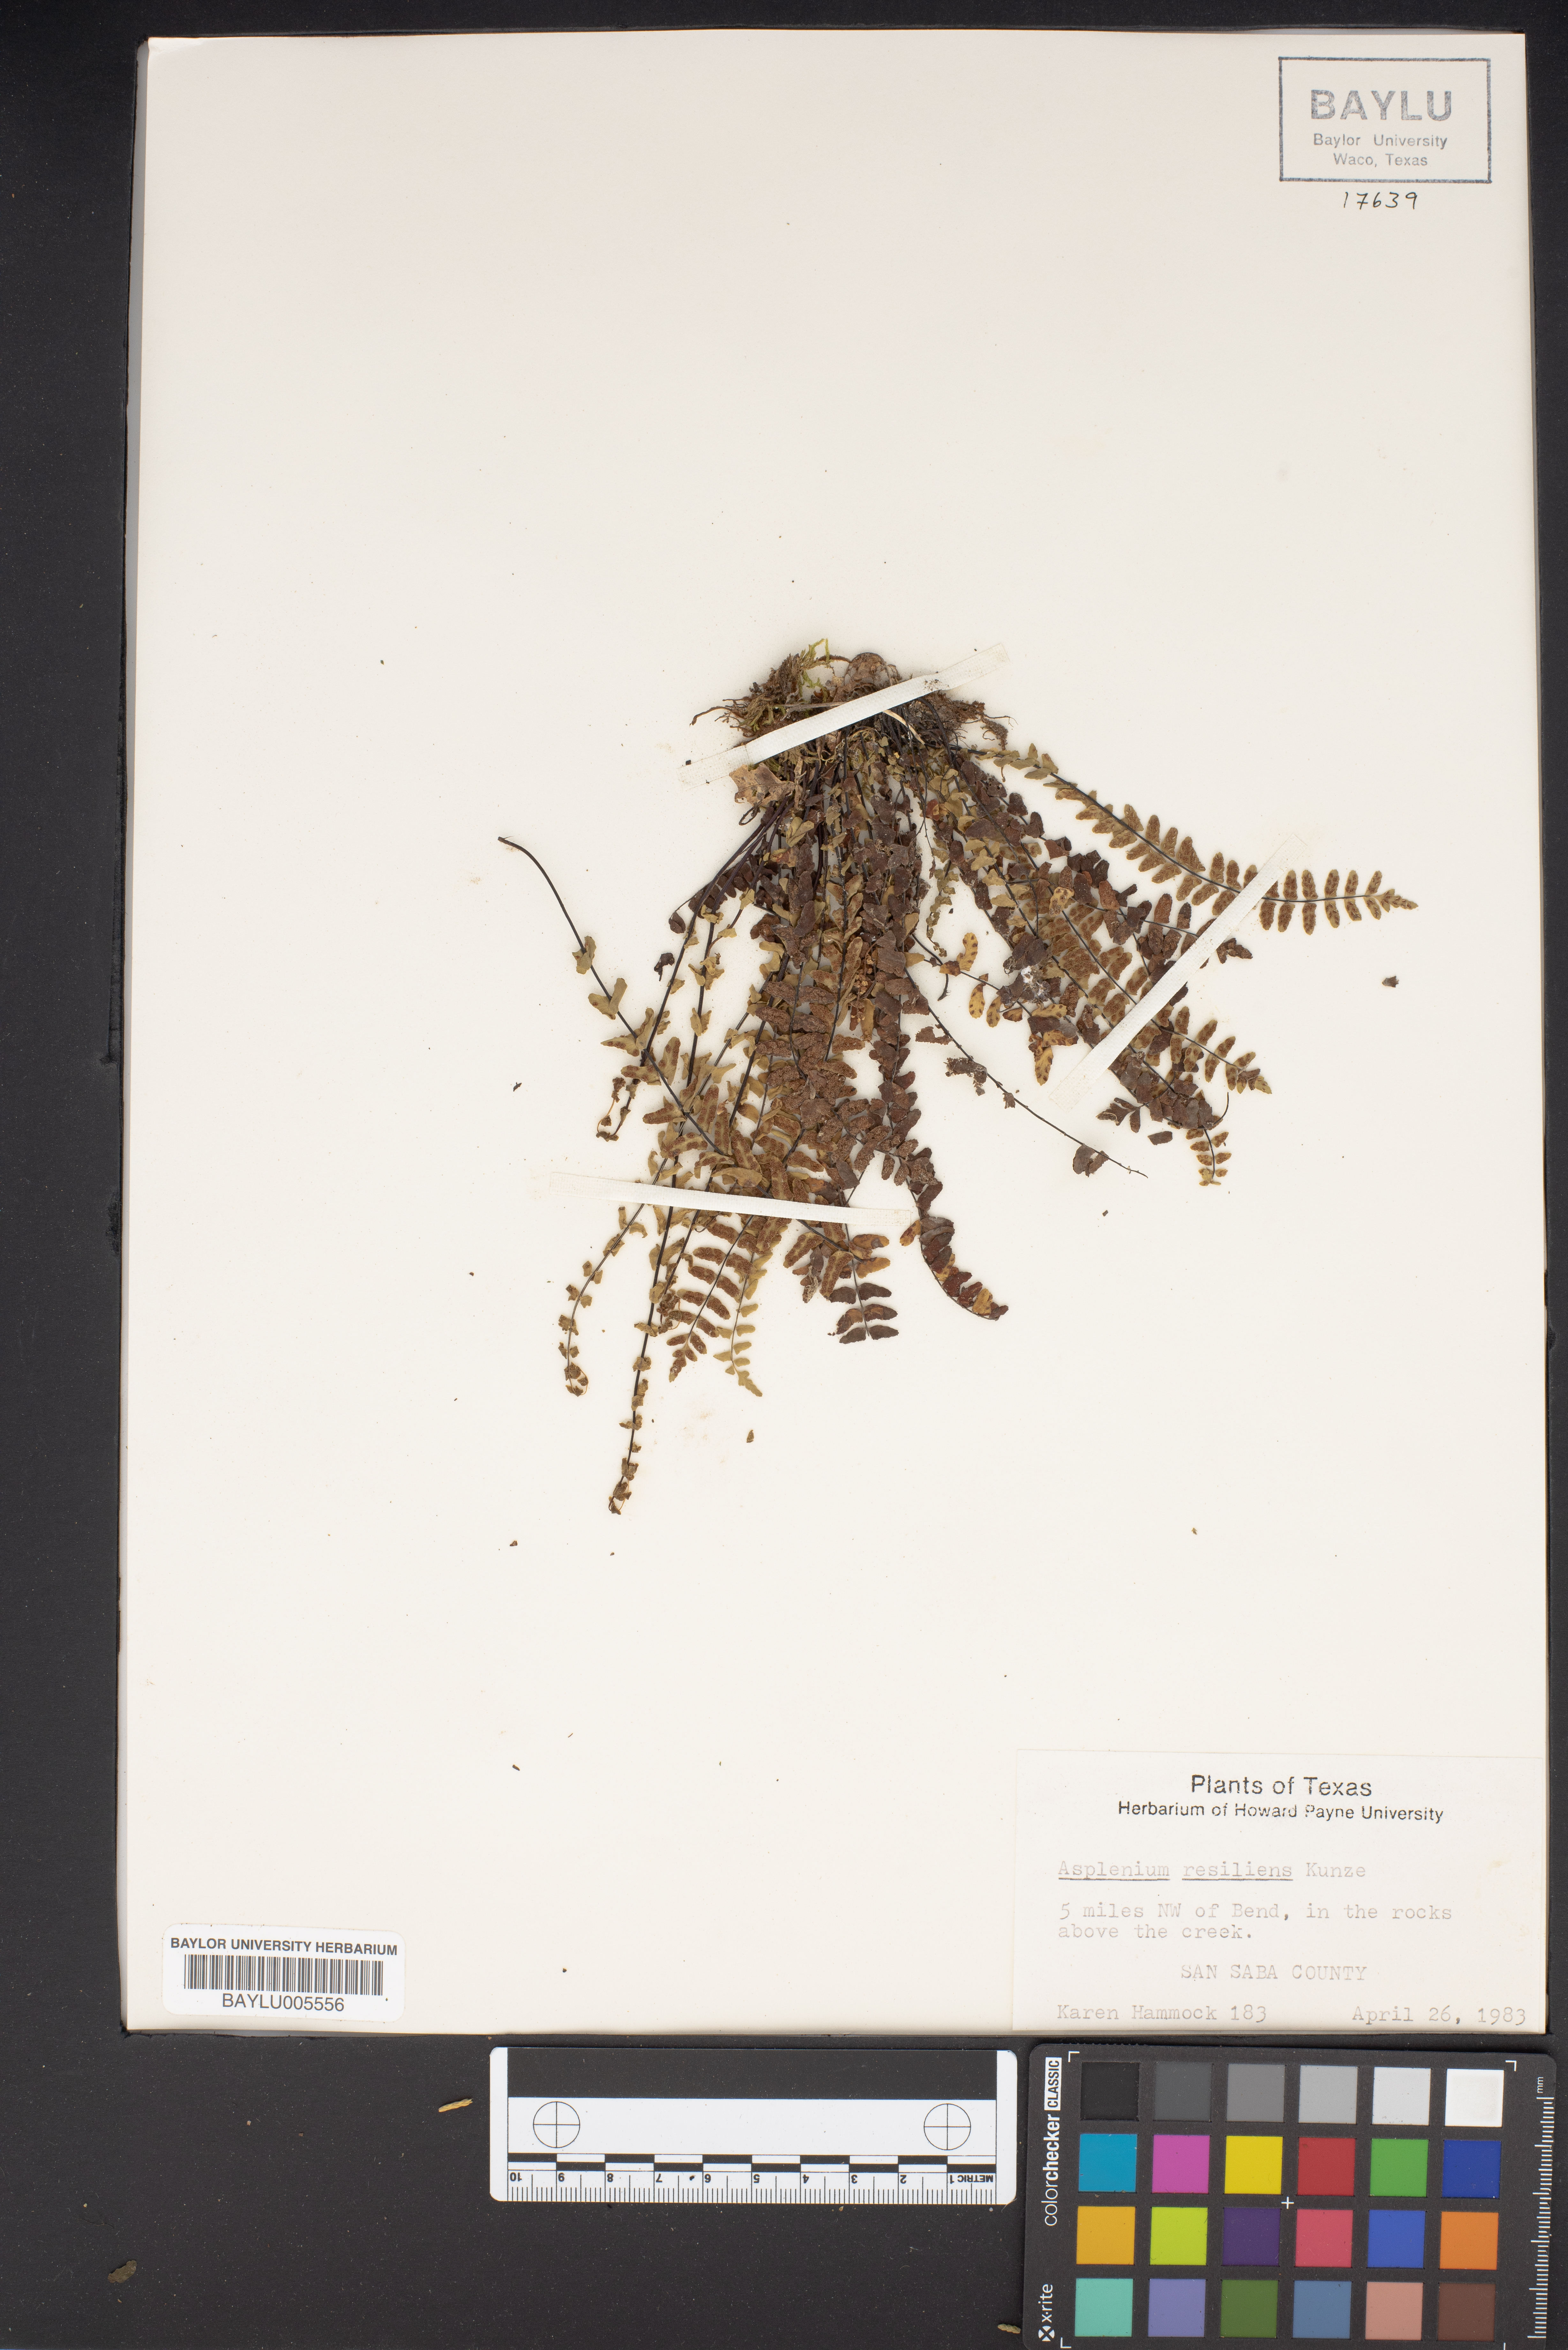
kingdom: Plantae
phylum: Tracheophyta
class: Polypodiopsida
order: Polypodiales
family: Aspleniaceae
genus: Asplenium
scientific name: Asplenium resiliens
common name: Blackstem spleenwort
